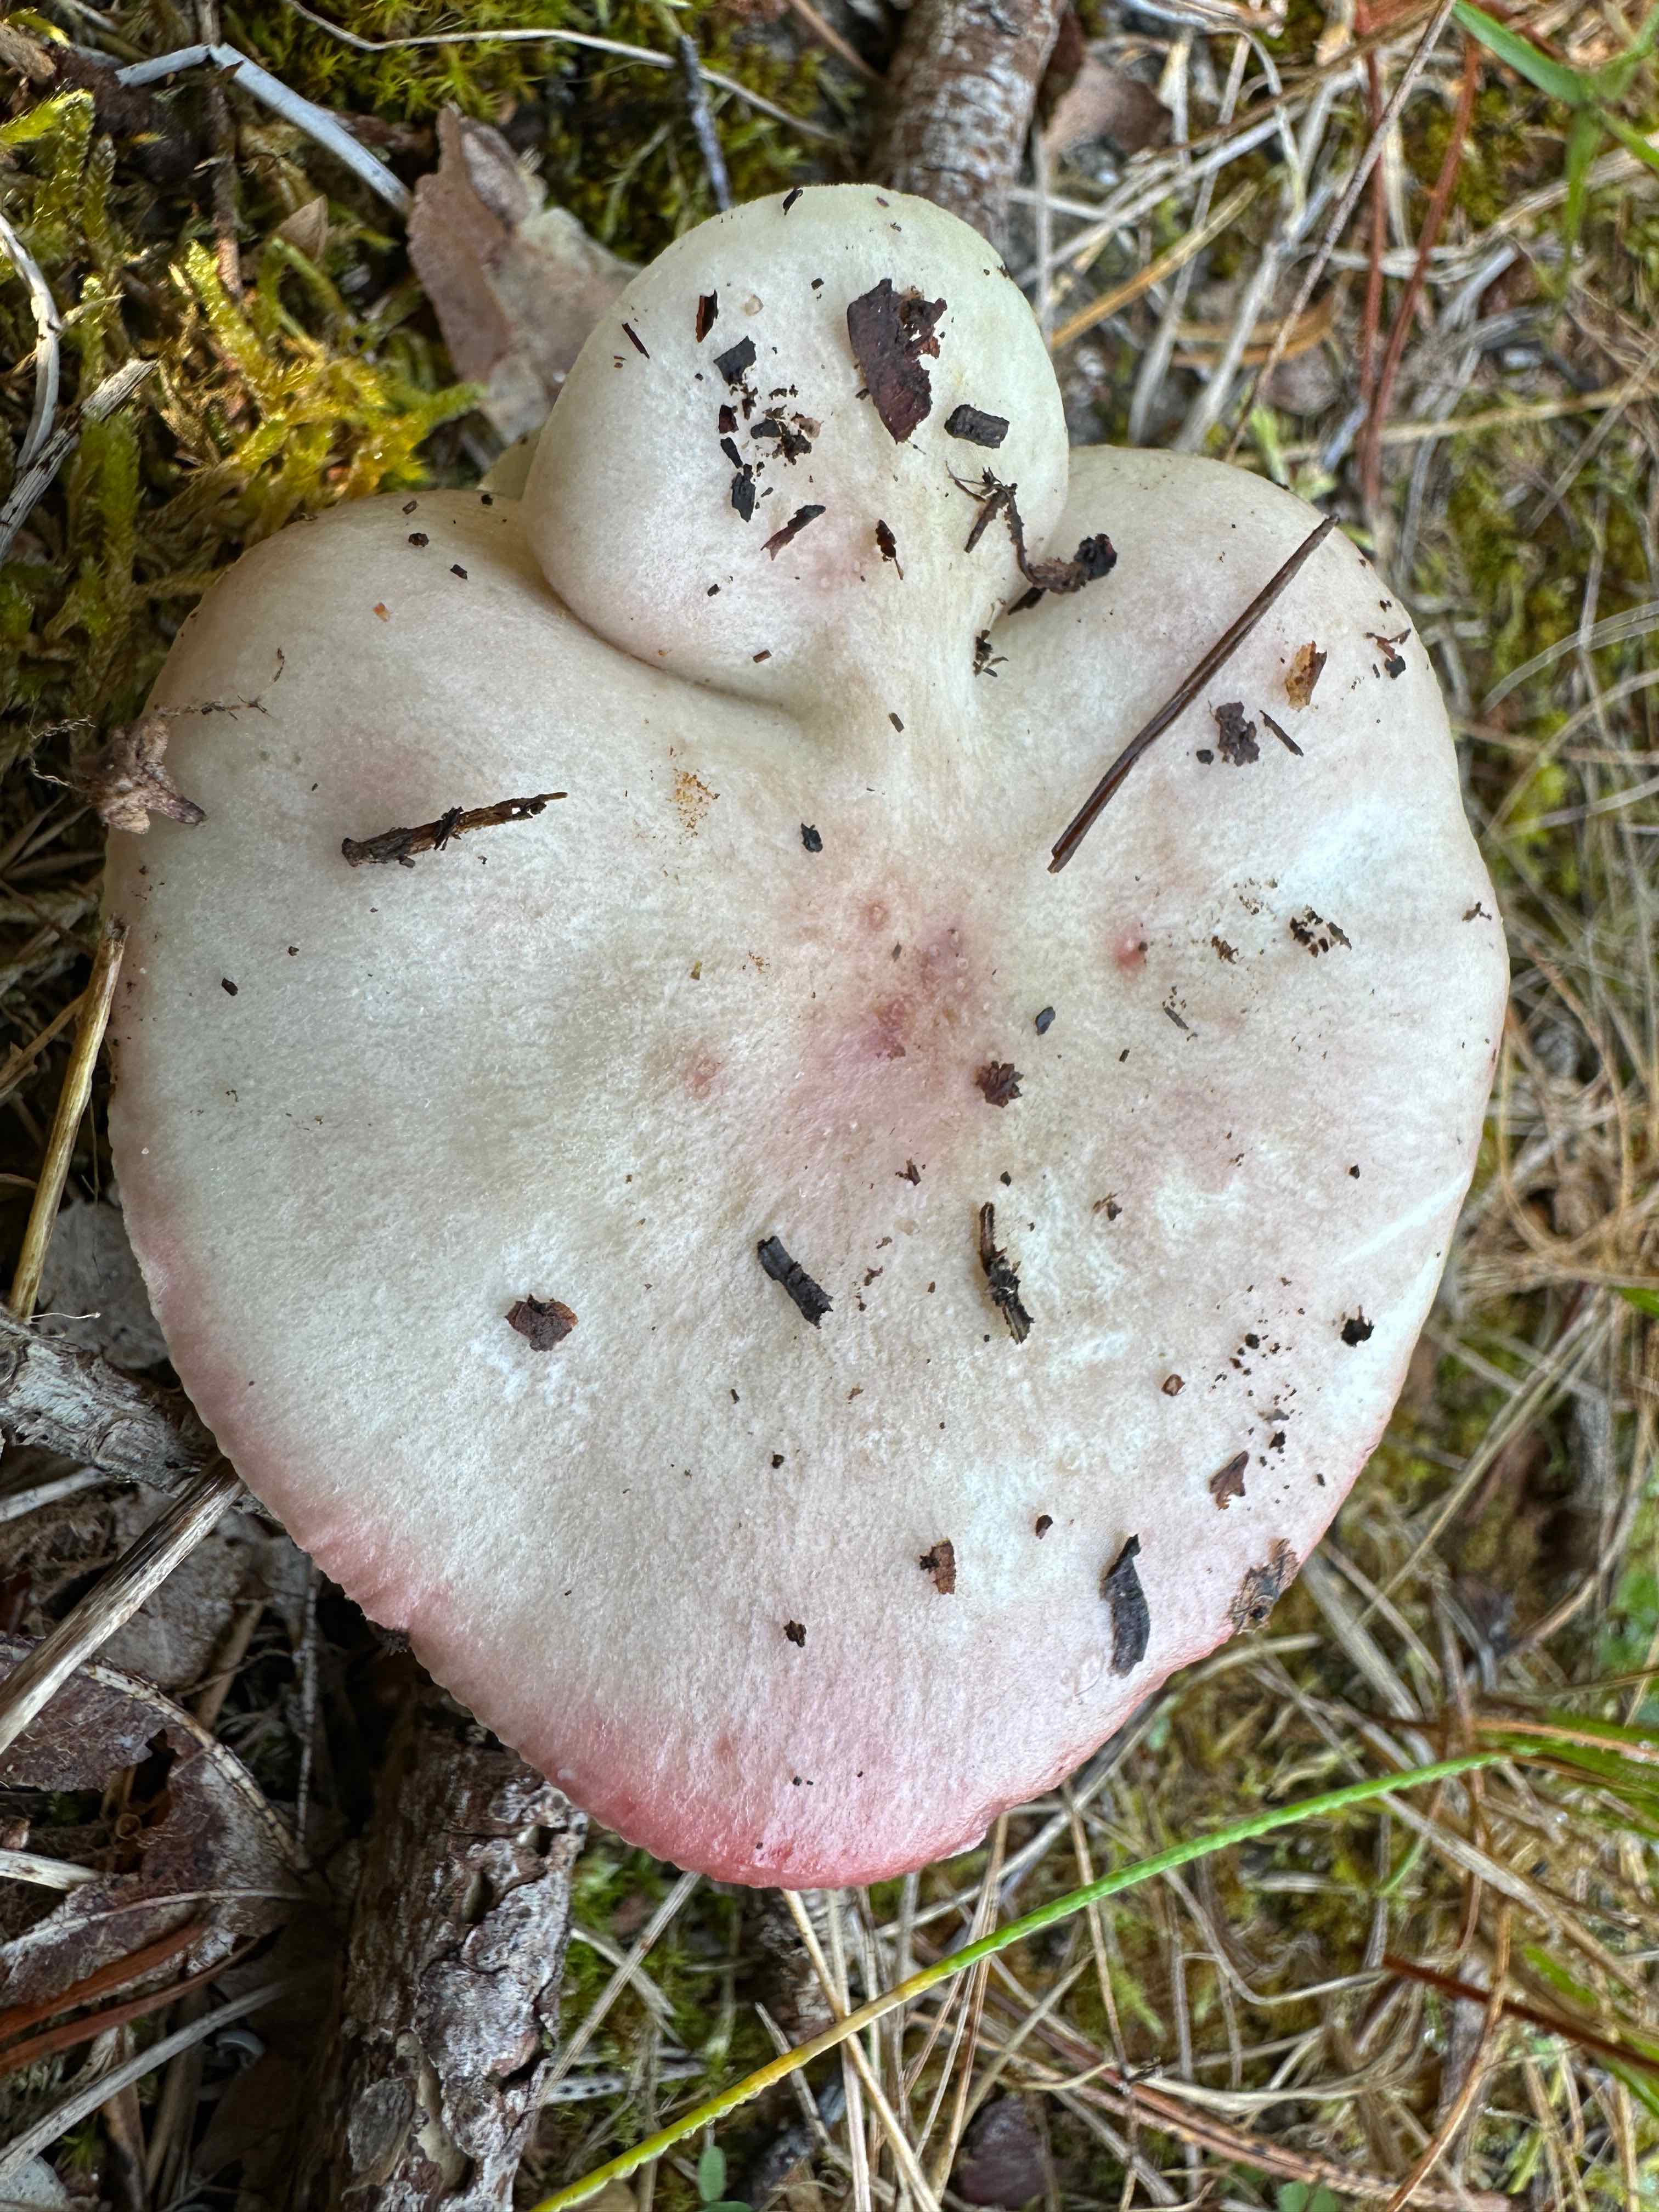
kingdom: Fungi
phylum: Basidiomycota
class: Agaricomycetes
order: Russulales
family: Russulaceae
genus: Russula
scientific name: Russula depallens
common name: falmende skørhat
